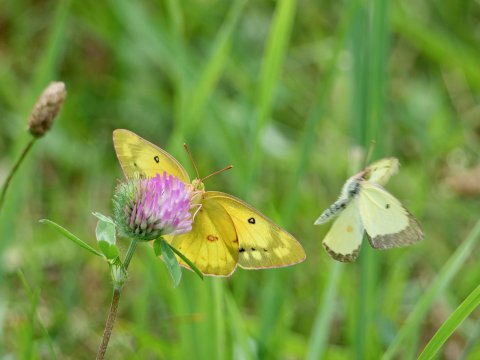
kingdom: Animalia
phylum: Arthropoda
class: Insecta
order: Lepidoptera
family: Pieridae
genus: Colias
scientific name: Colias philodice
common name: Clouded Sulphur
